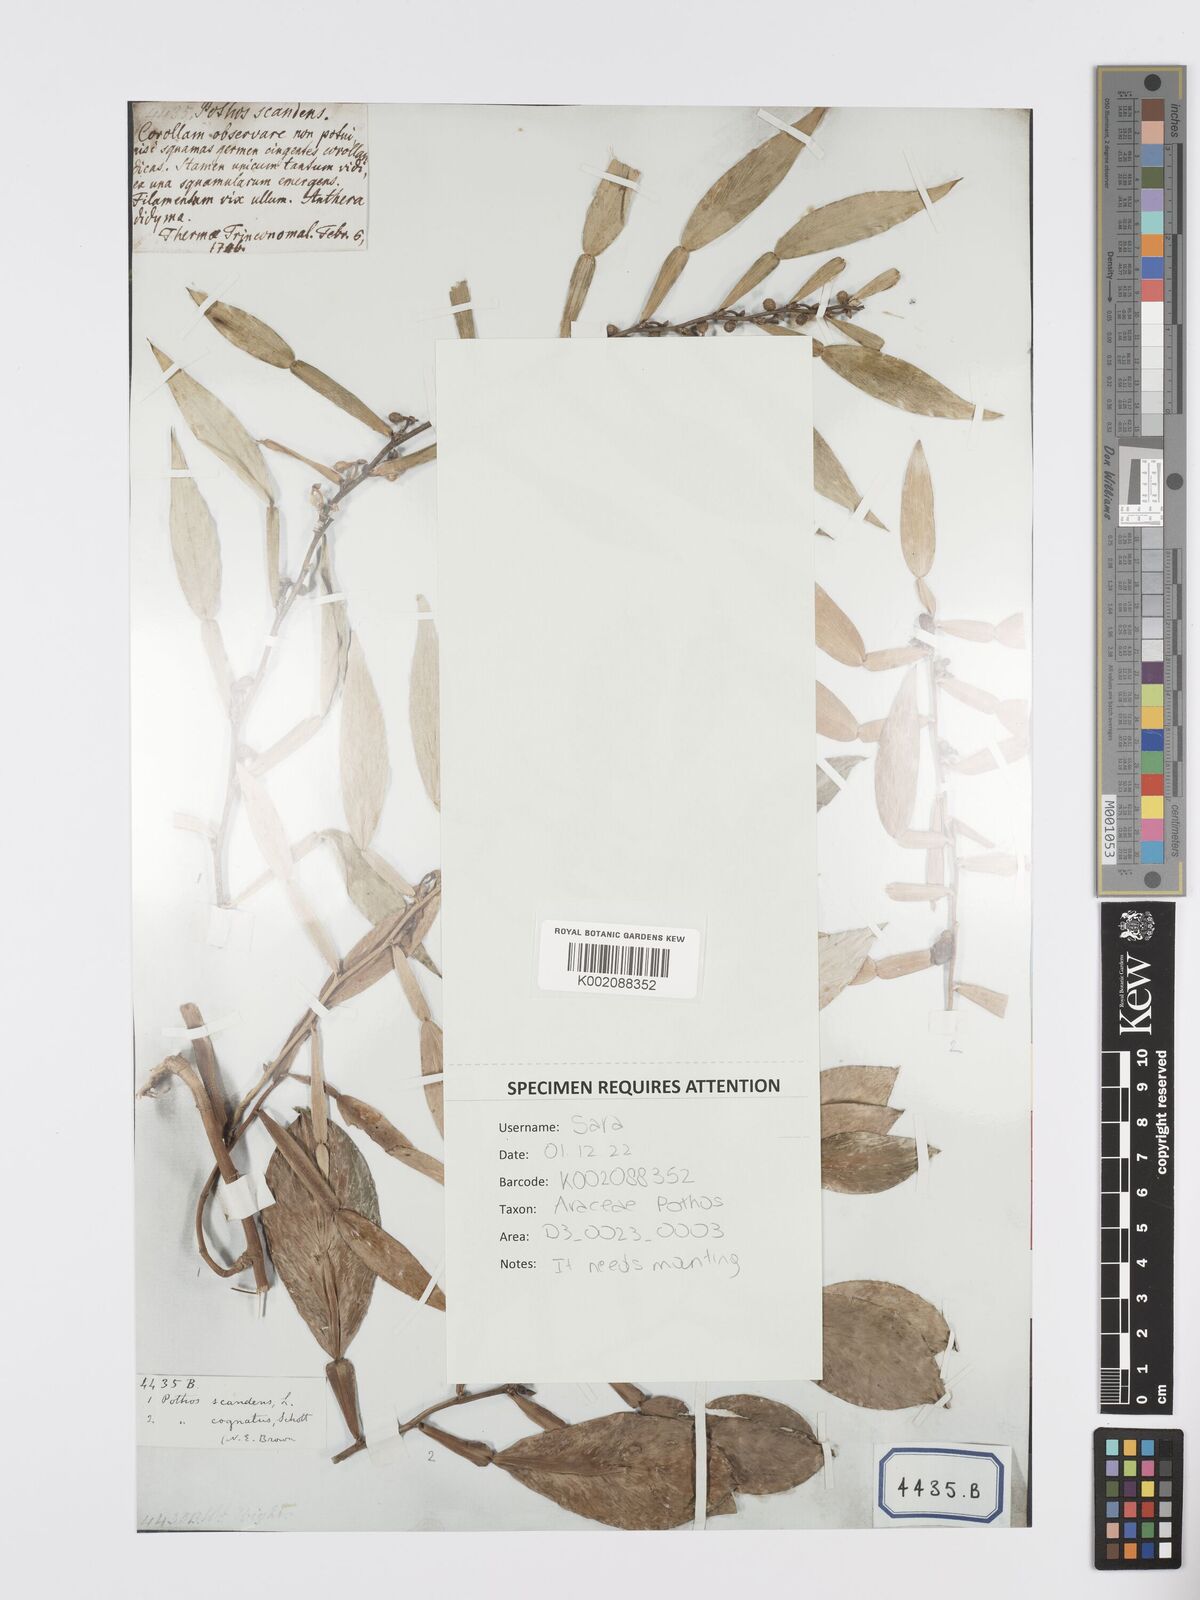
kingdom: Plantae
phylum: Tracheophyta
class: Liliopsida
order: Alismatales
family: Araceae
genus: Pothos
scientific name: Pothos scandens
